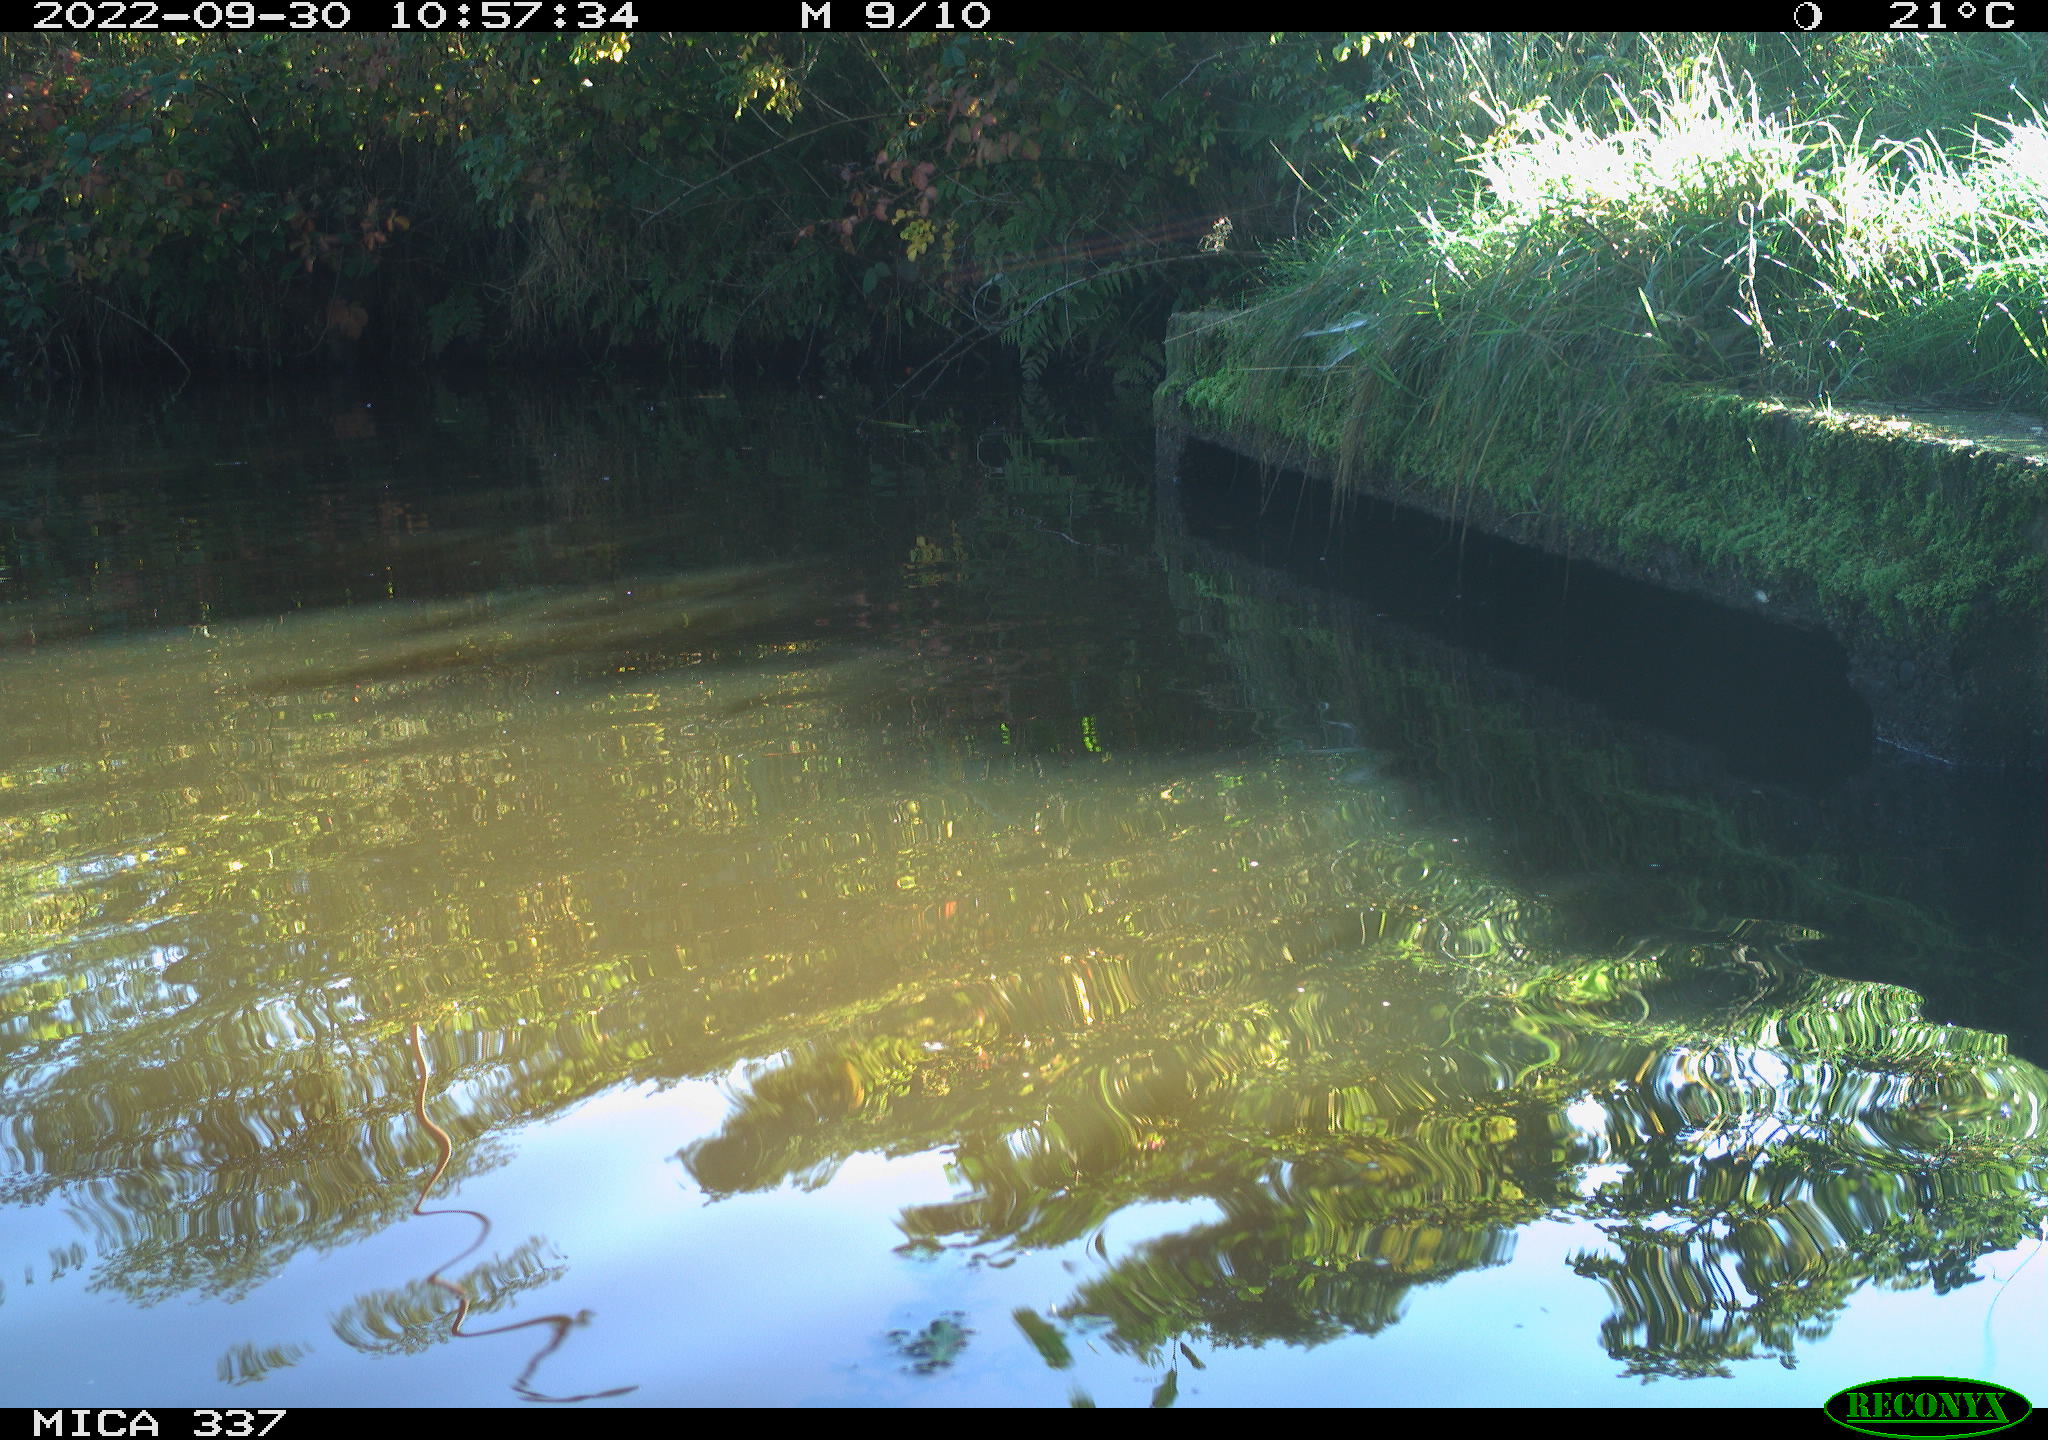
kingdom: Animalia
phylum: Chordata
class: Aves
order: Gruiformes
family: Rallidae
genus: Gallinula
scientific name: Gallinula chloropus
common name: Common moorhen
